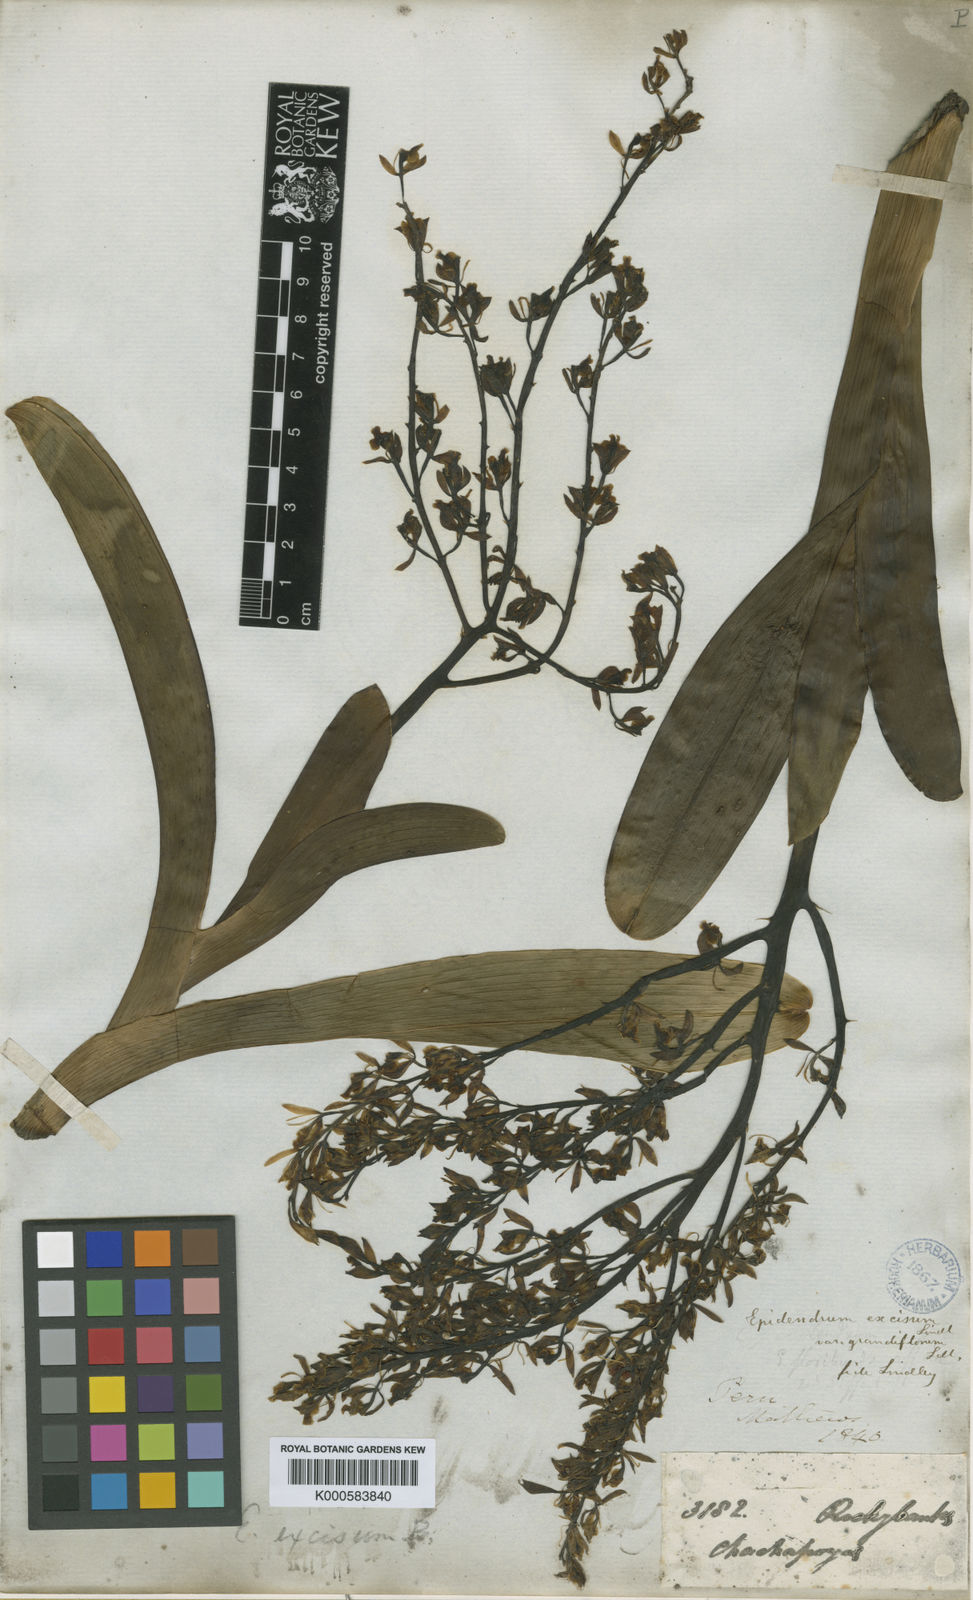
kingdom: Plantae
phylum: Tracheophyta
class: Liliopsida
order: Asparagales
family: Orchidaceae
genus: Epidendrum
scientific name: Epidendrum excisum
